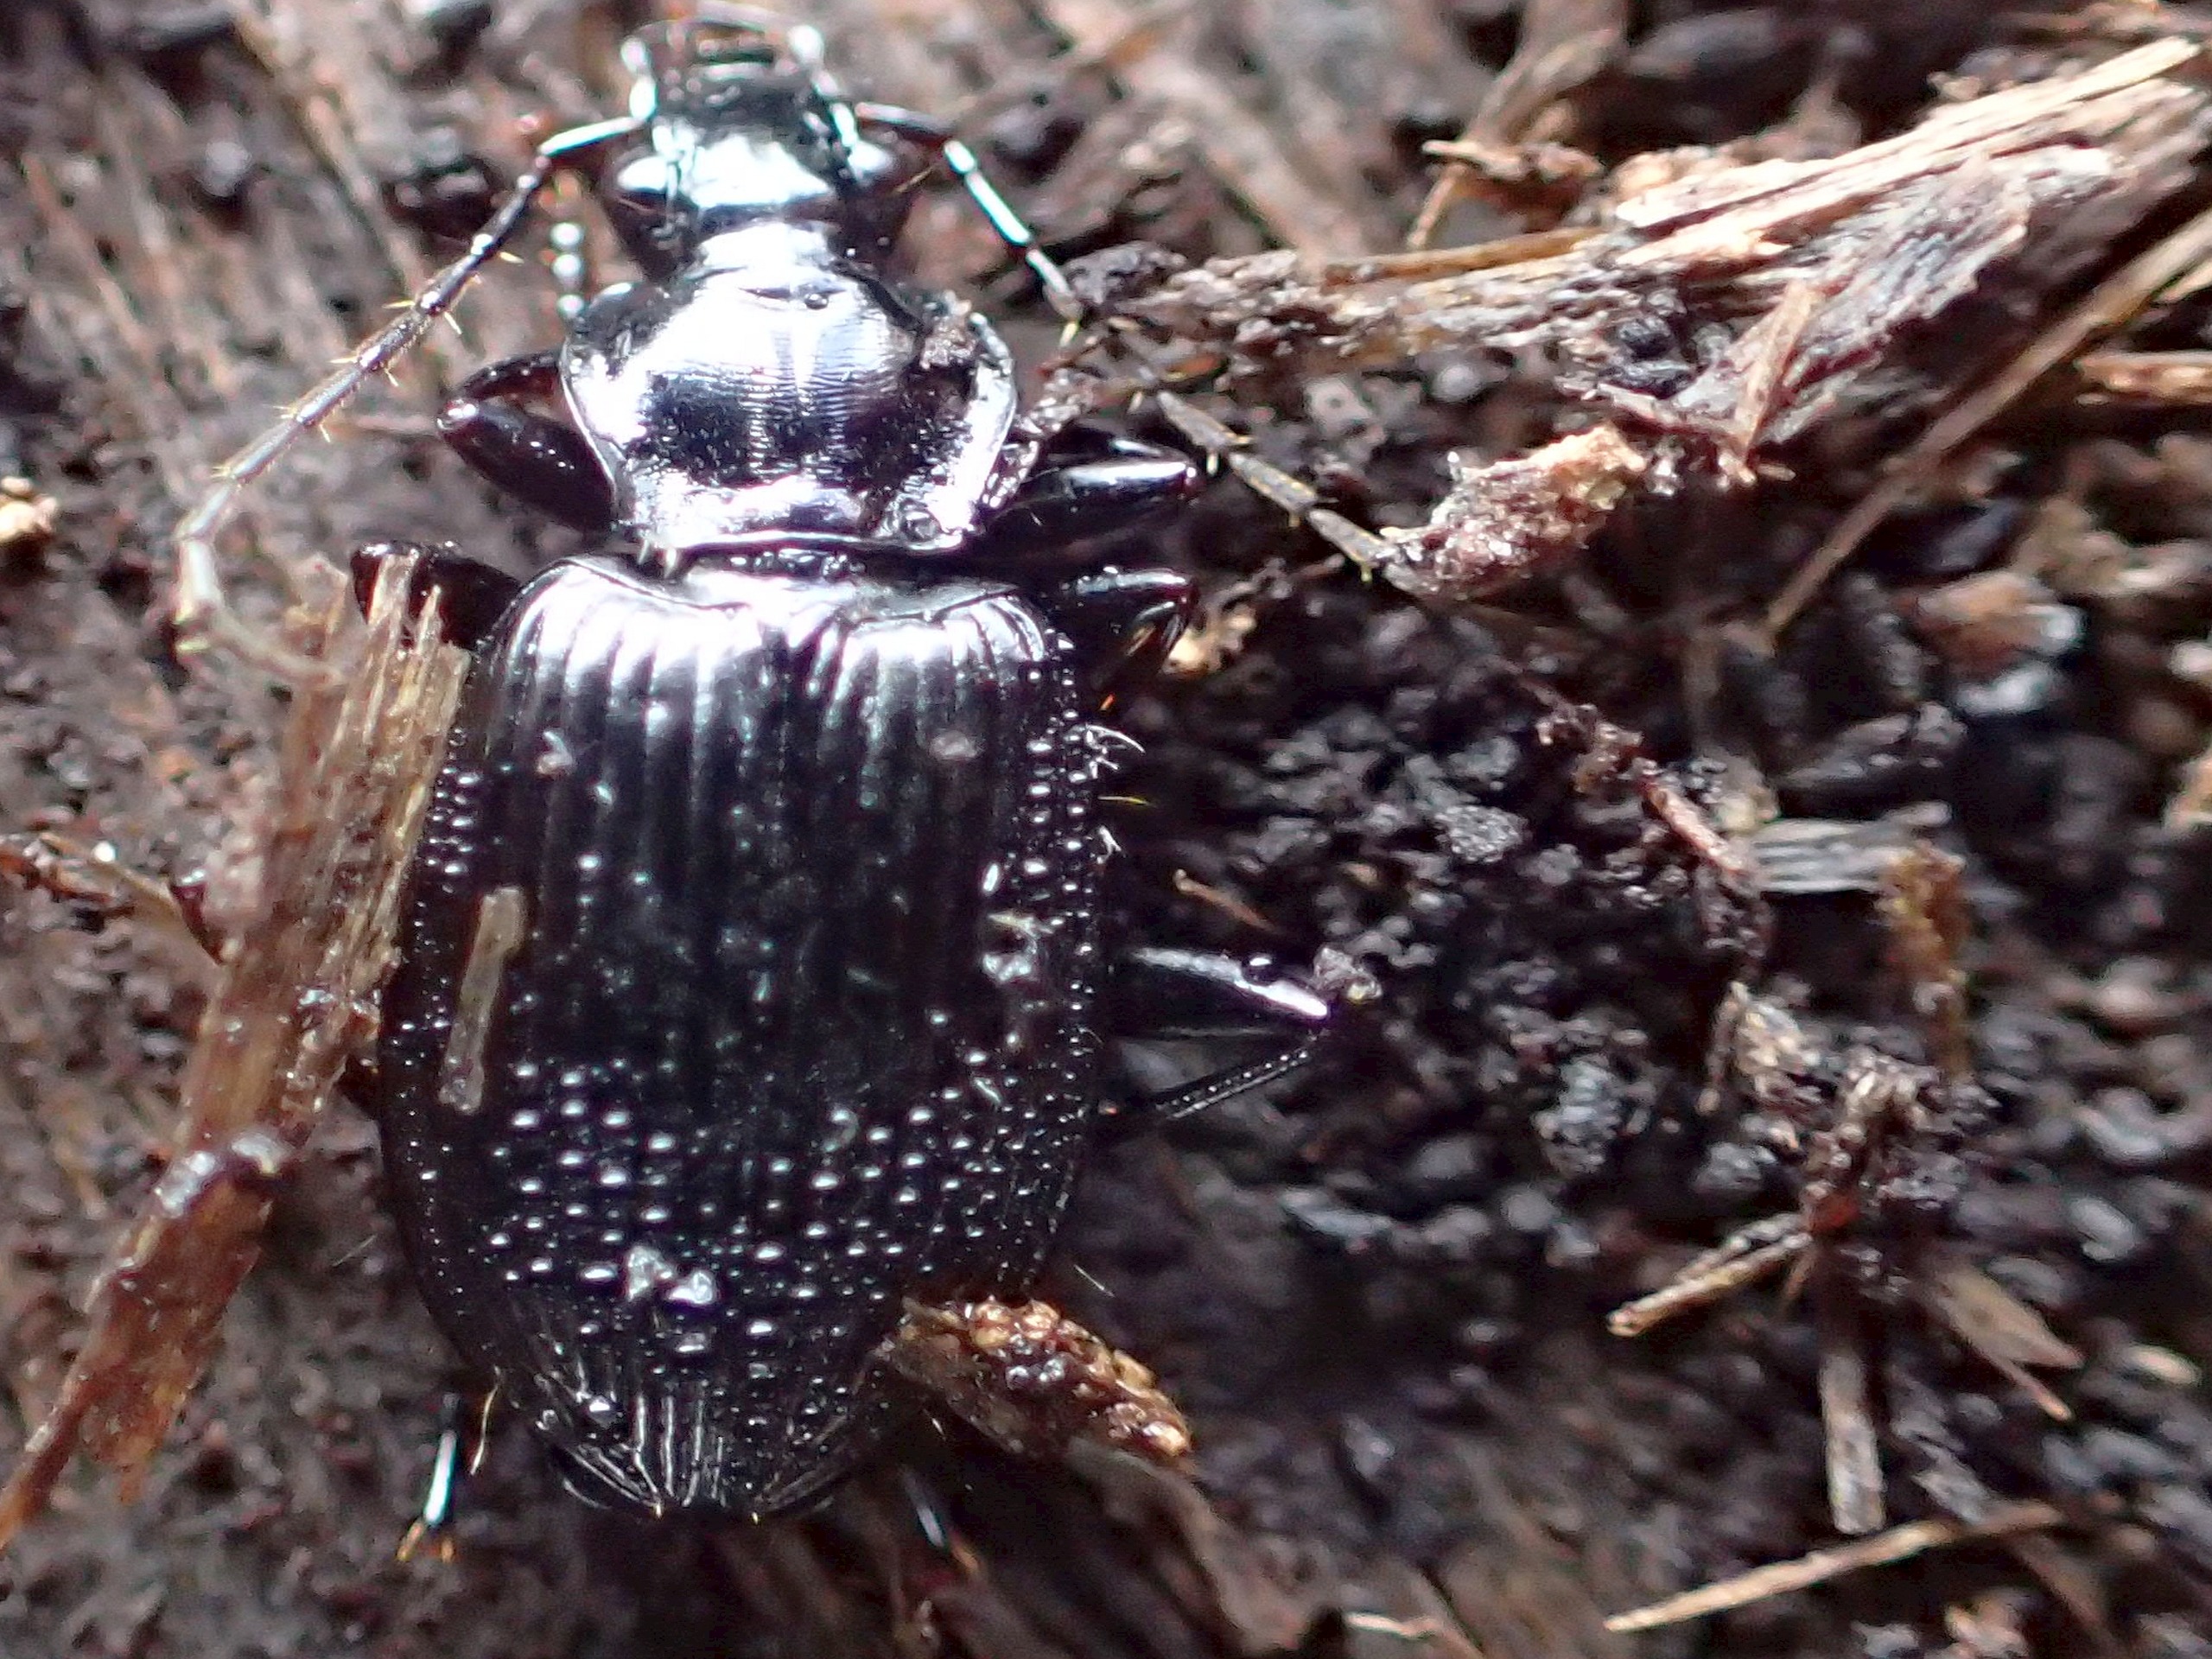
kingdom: Animalia
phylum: Arthropoda
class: Insecta
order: Coleoptera
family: Carabidae
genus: Platynus
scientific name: Platynus assimilis
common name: Skovkvikløber
